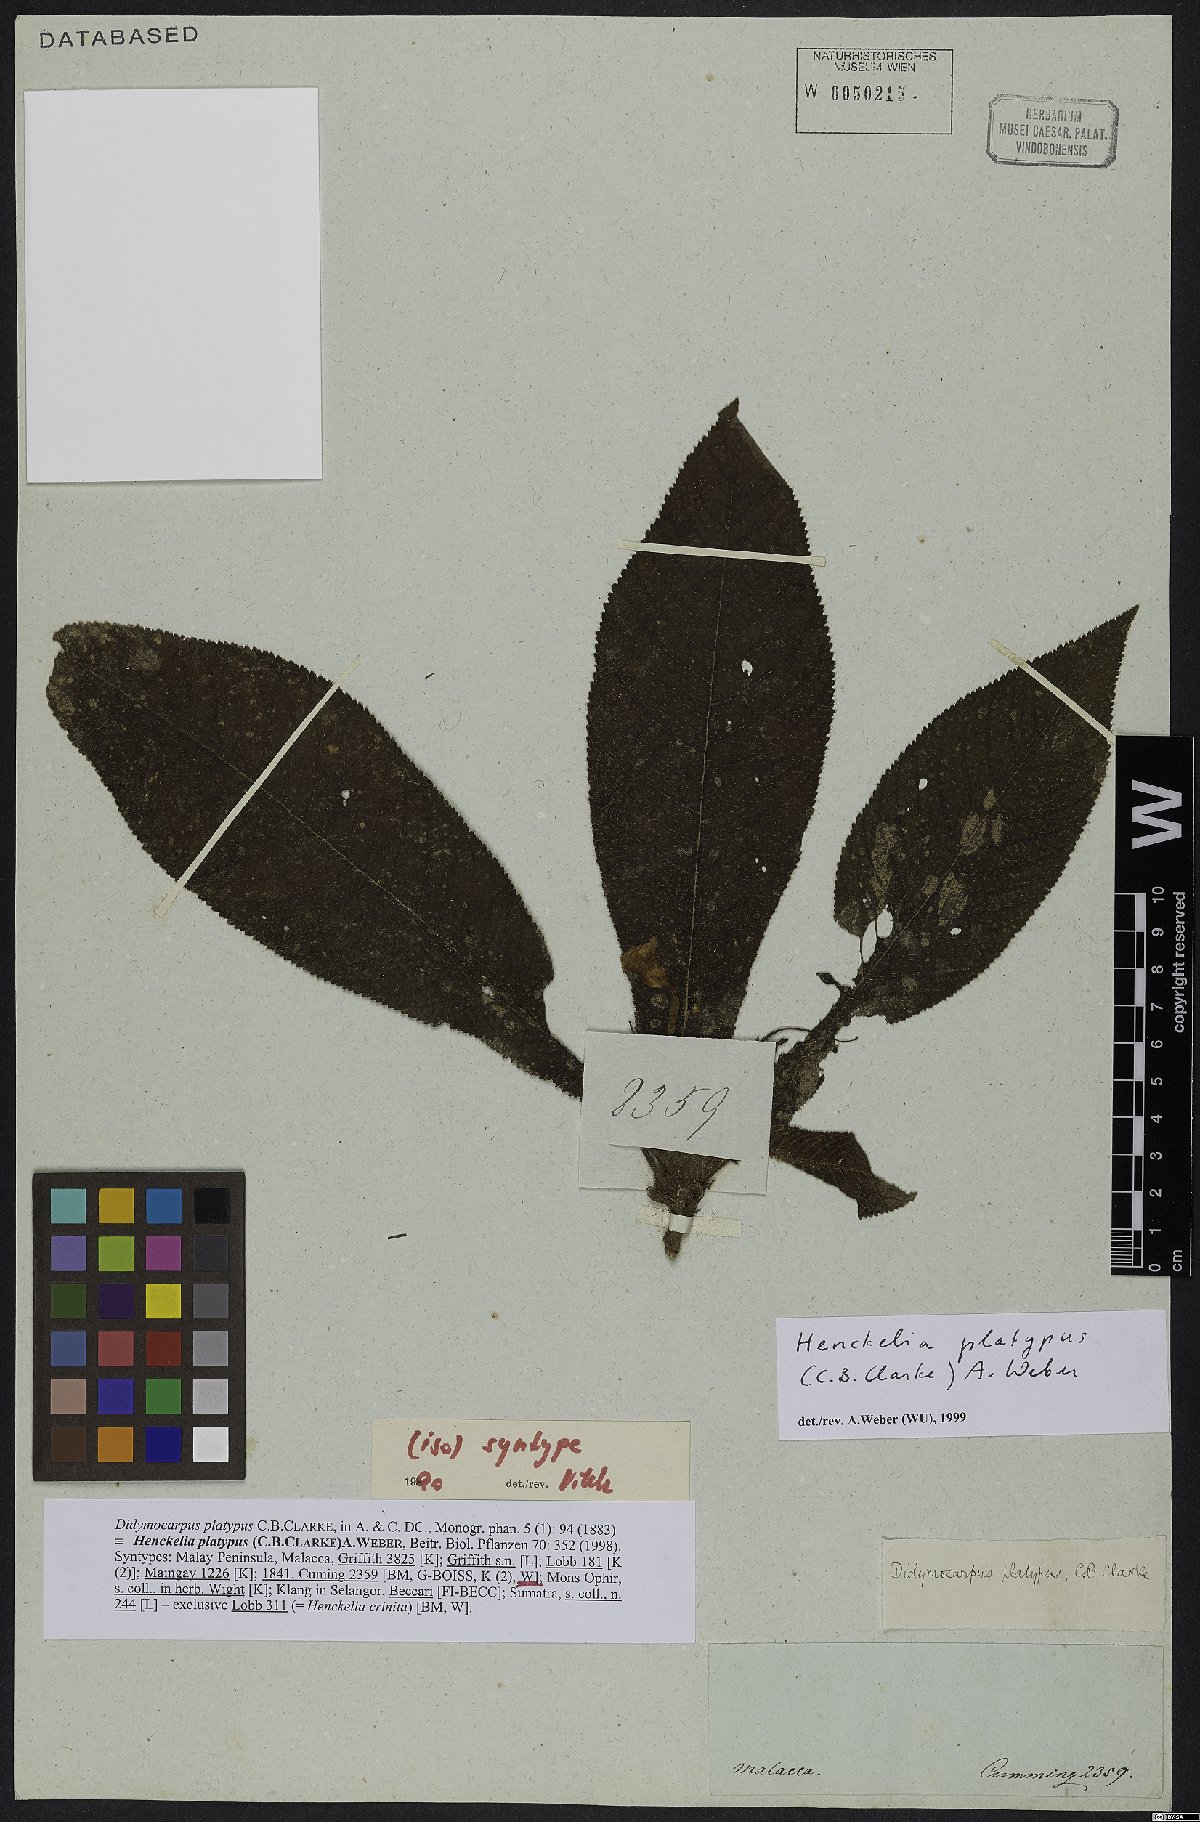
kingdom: Plantae
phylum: Tracheophyta
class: Magnoliopsida
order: Lamiales
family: Gesneriaceae
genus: Codonoboea
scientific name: Codonoboea platypus
